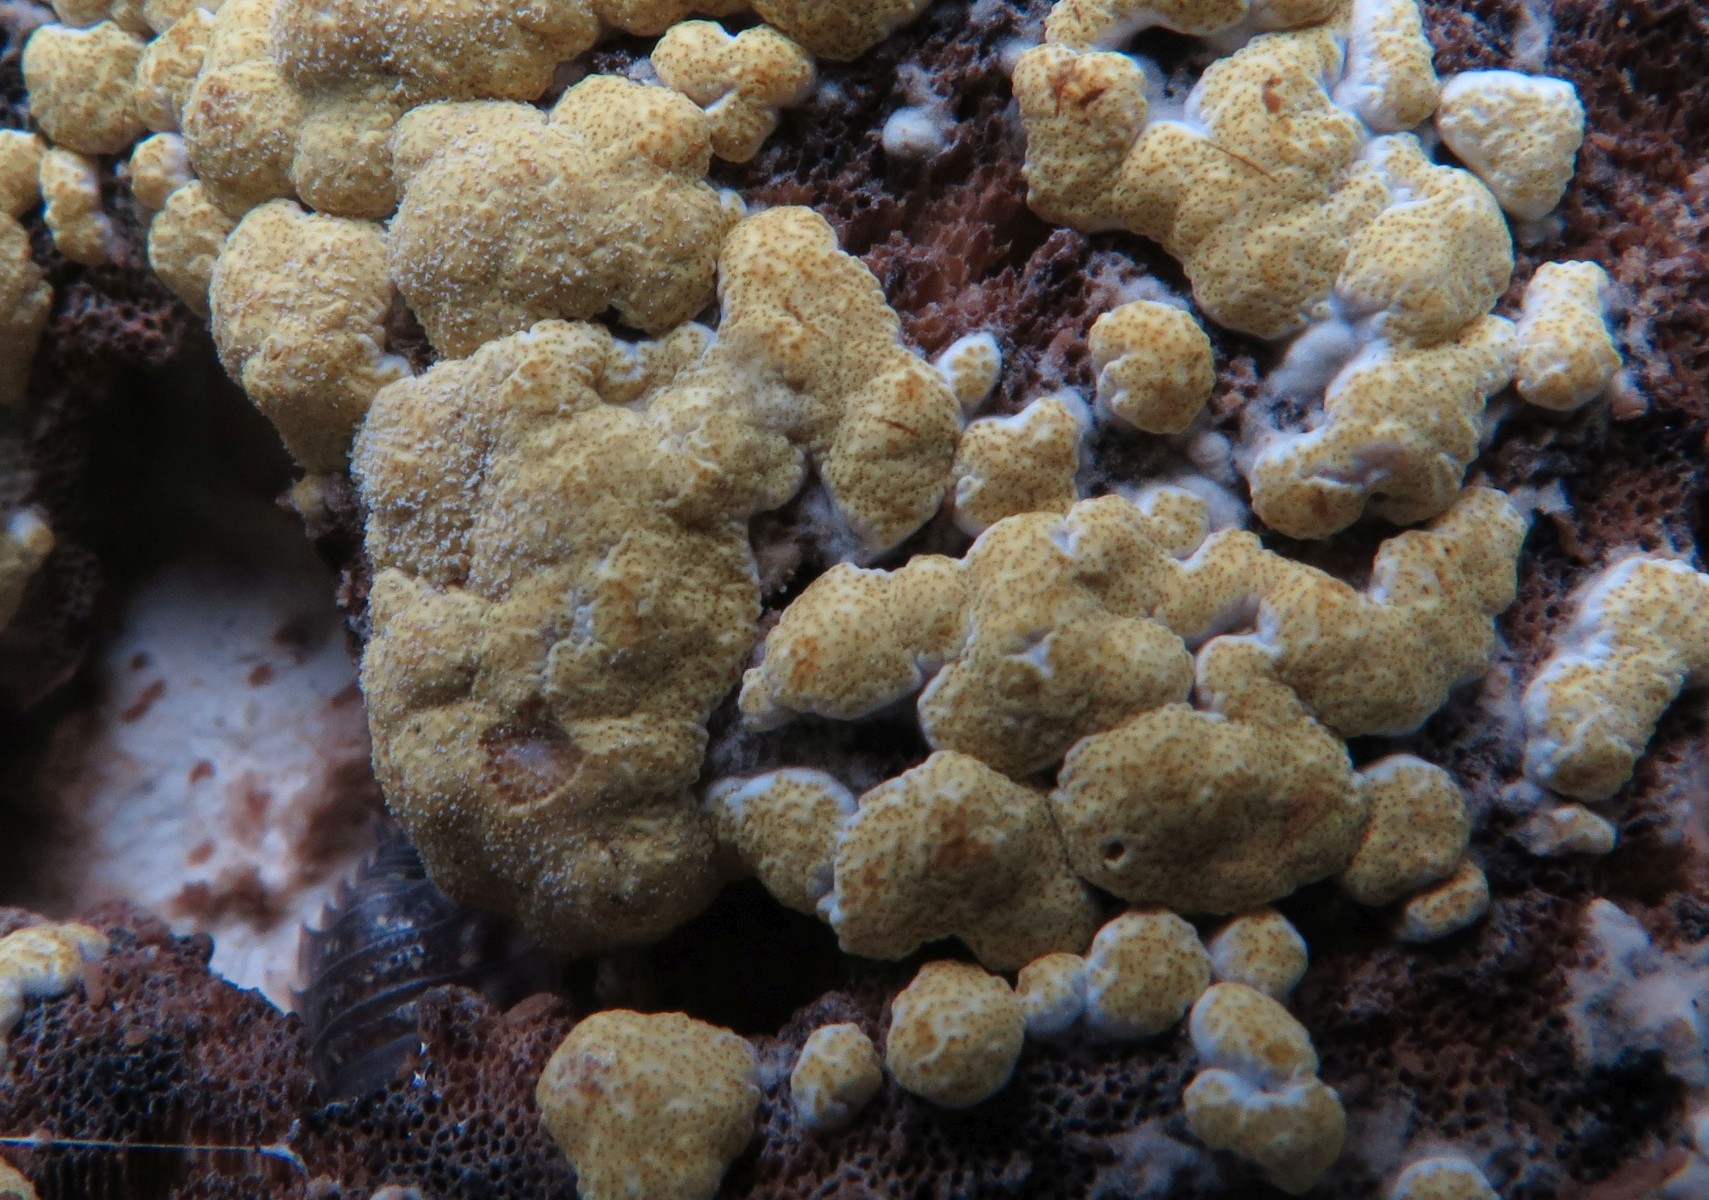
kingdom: Fungi
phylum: Ascomycota
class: Sordariomycetes
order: Hypocreales
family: Hypocreaceae
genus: Trichoderma
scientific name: Trichoderma pulvinatum
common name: snyltende kødkerne
